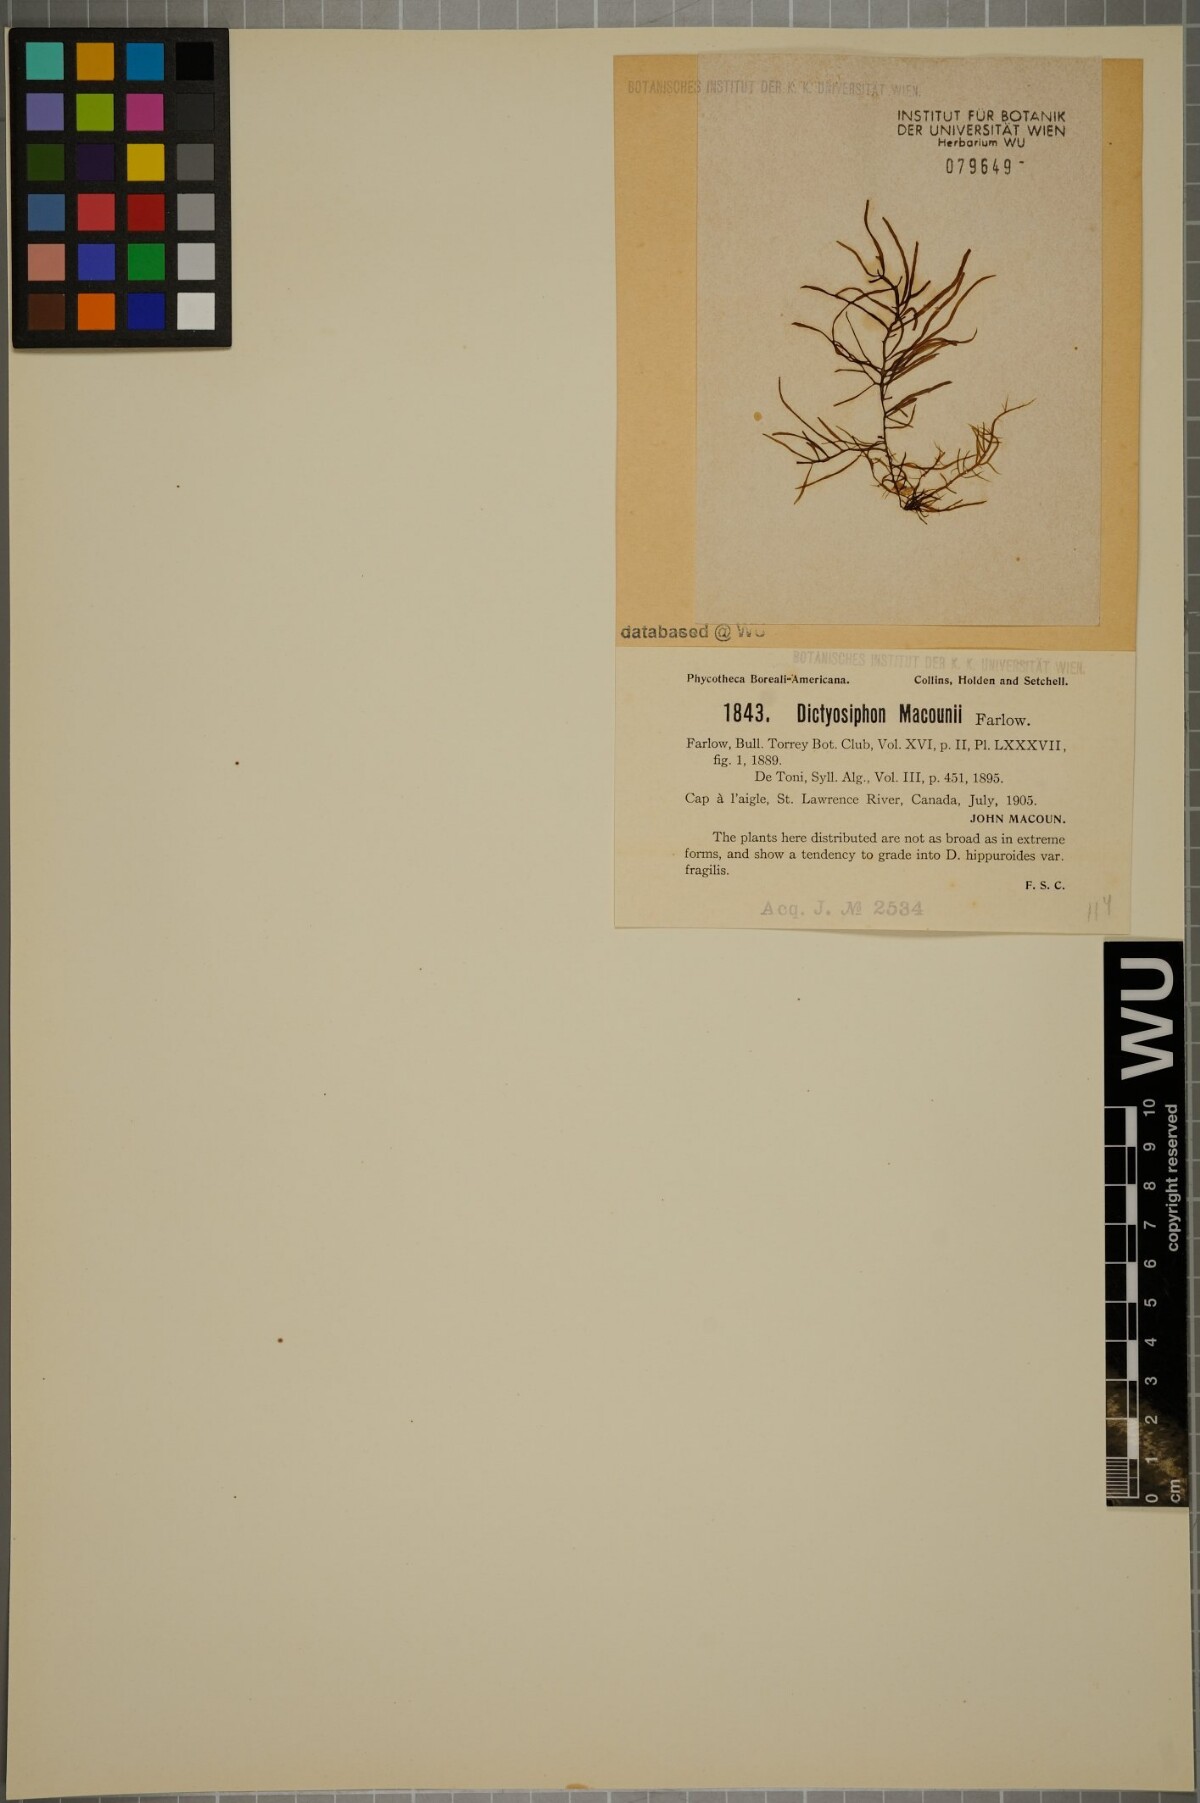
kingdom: Chromista
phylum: Ochrophyta
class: Phaeophyceae
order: Ectocarpales
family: Chordariaceae
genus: Dictyosiphon
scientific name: Dictyosiphon macounii
